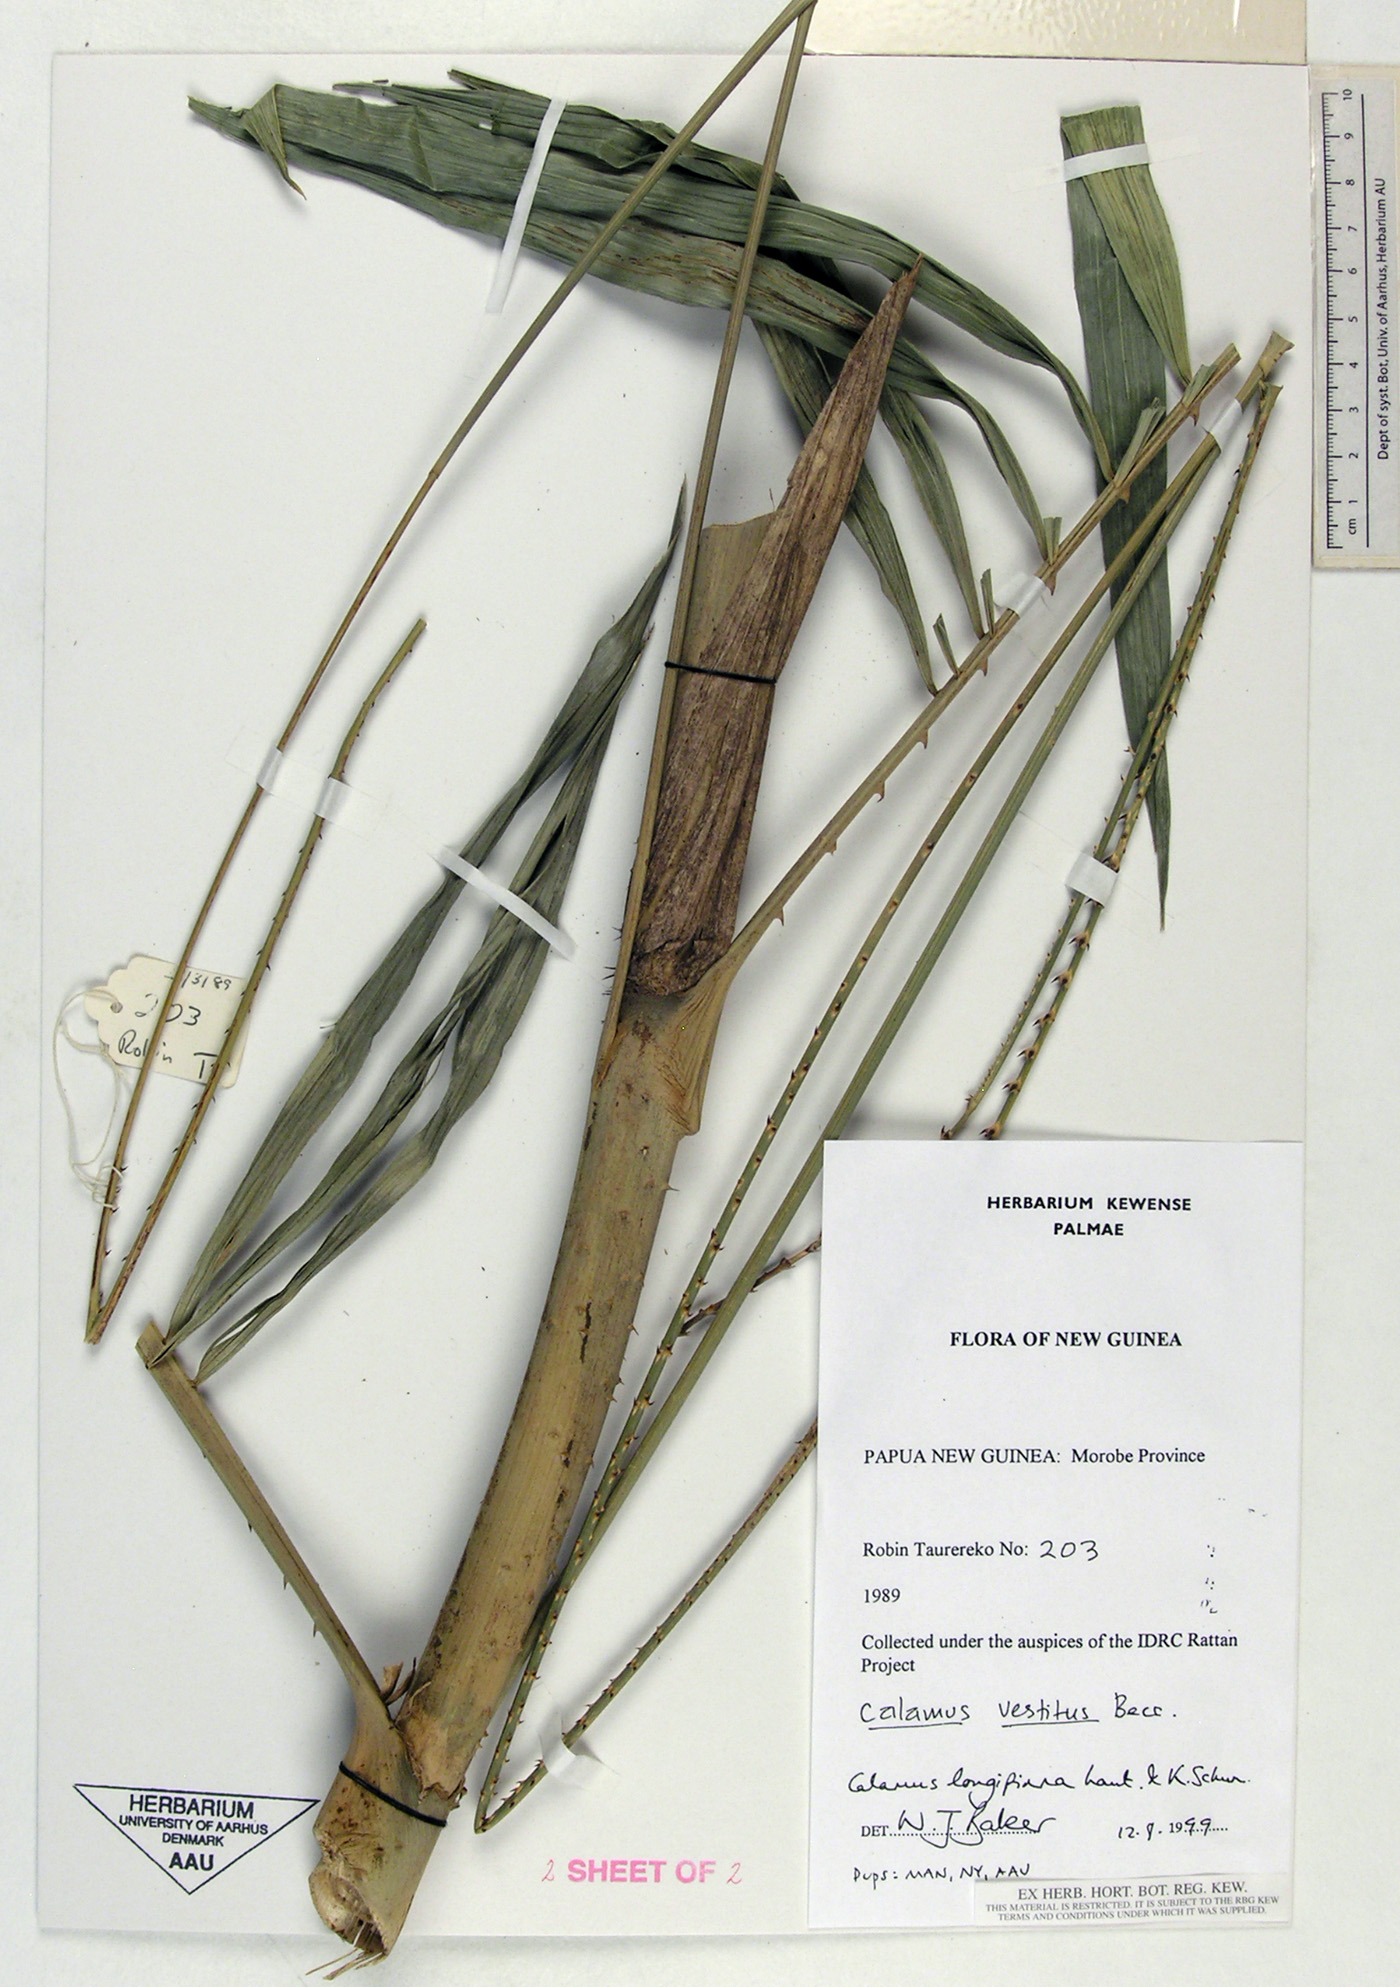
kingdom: Plantae
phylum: Tracheophyta
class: Liliopsida
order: Arecales
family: Arecaceae
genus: Calamus
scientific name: Calamus longipinna
